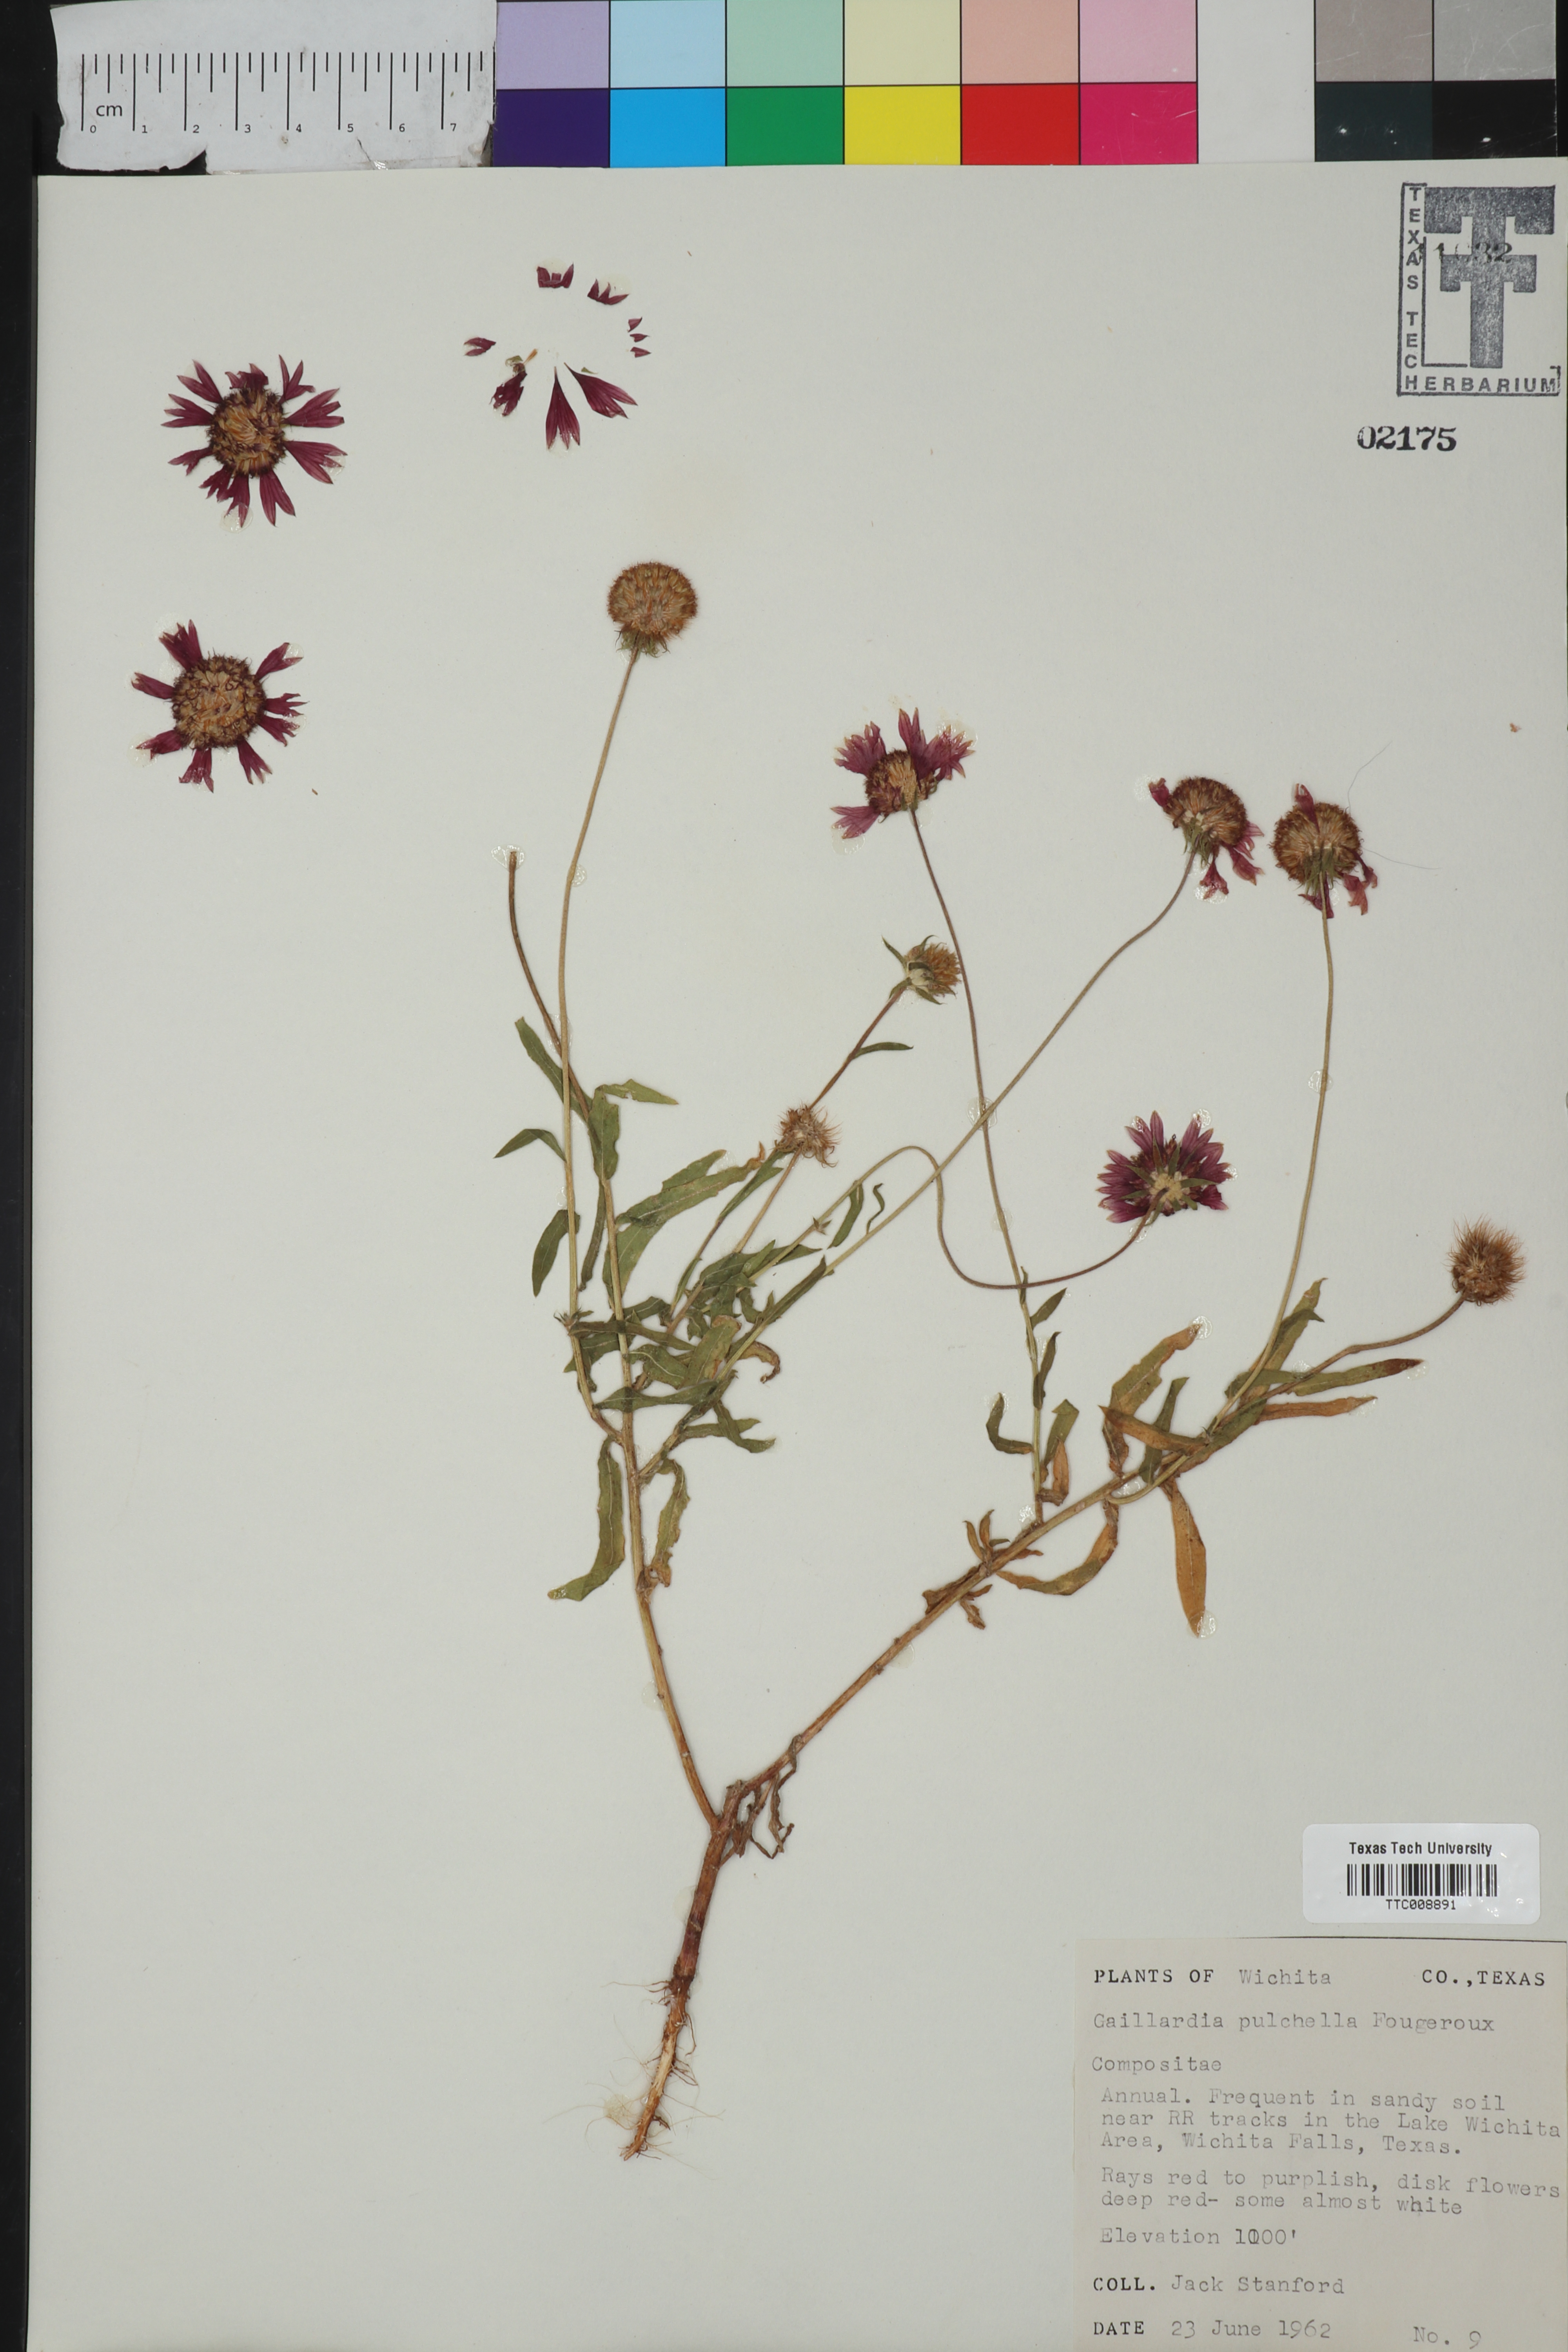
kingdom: Plantae
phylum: Tracheophyta
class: Magnoliopsida
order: Asterales
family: Asteraceae
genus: Gaillardia
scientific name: Gaillardia pulchella
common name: Firewheel
